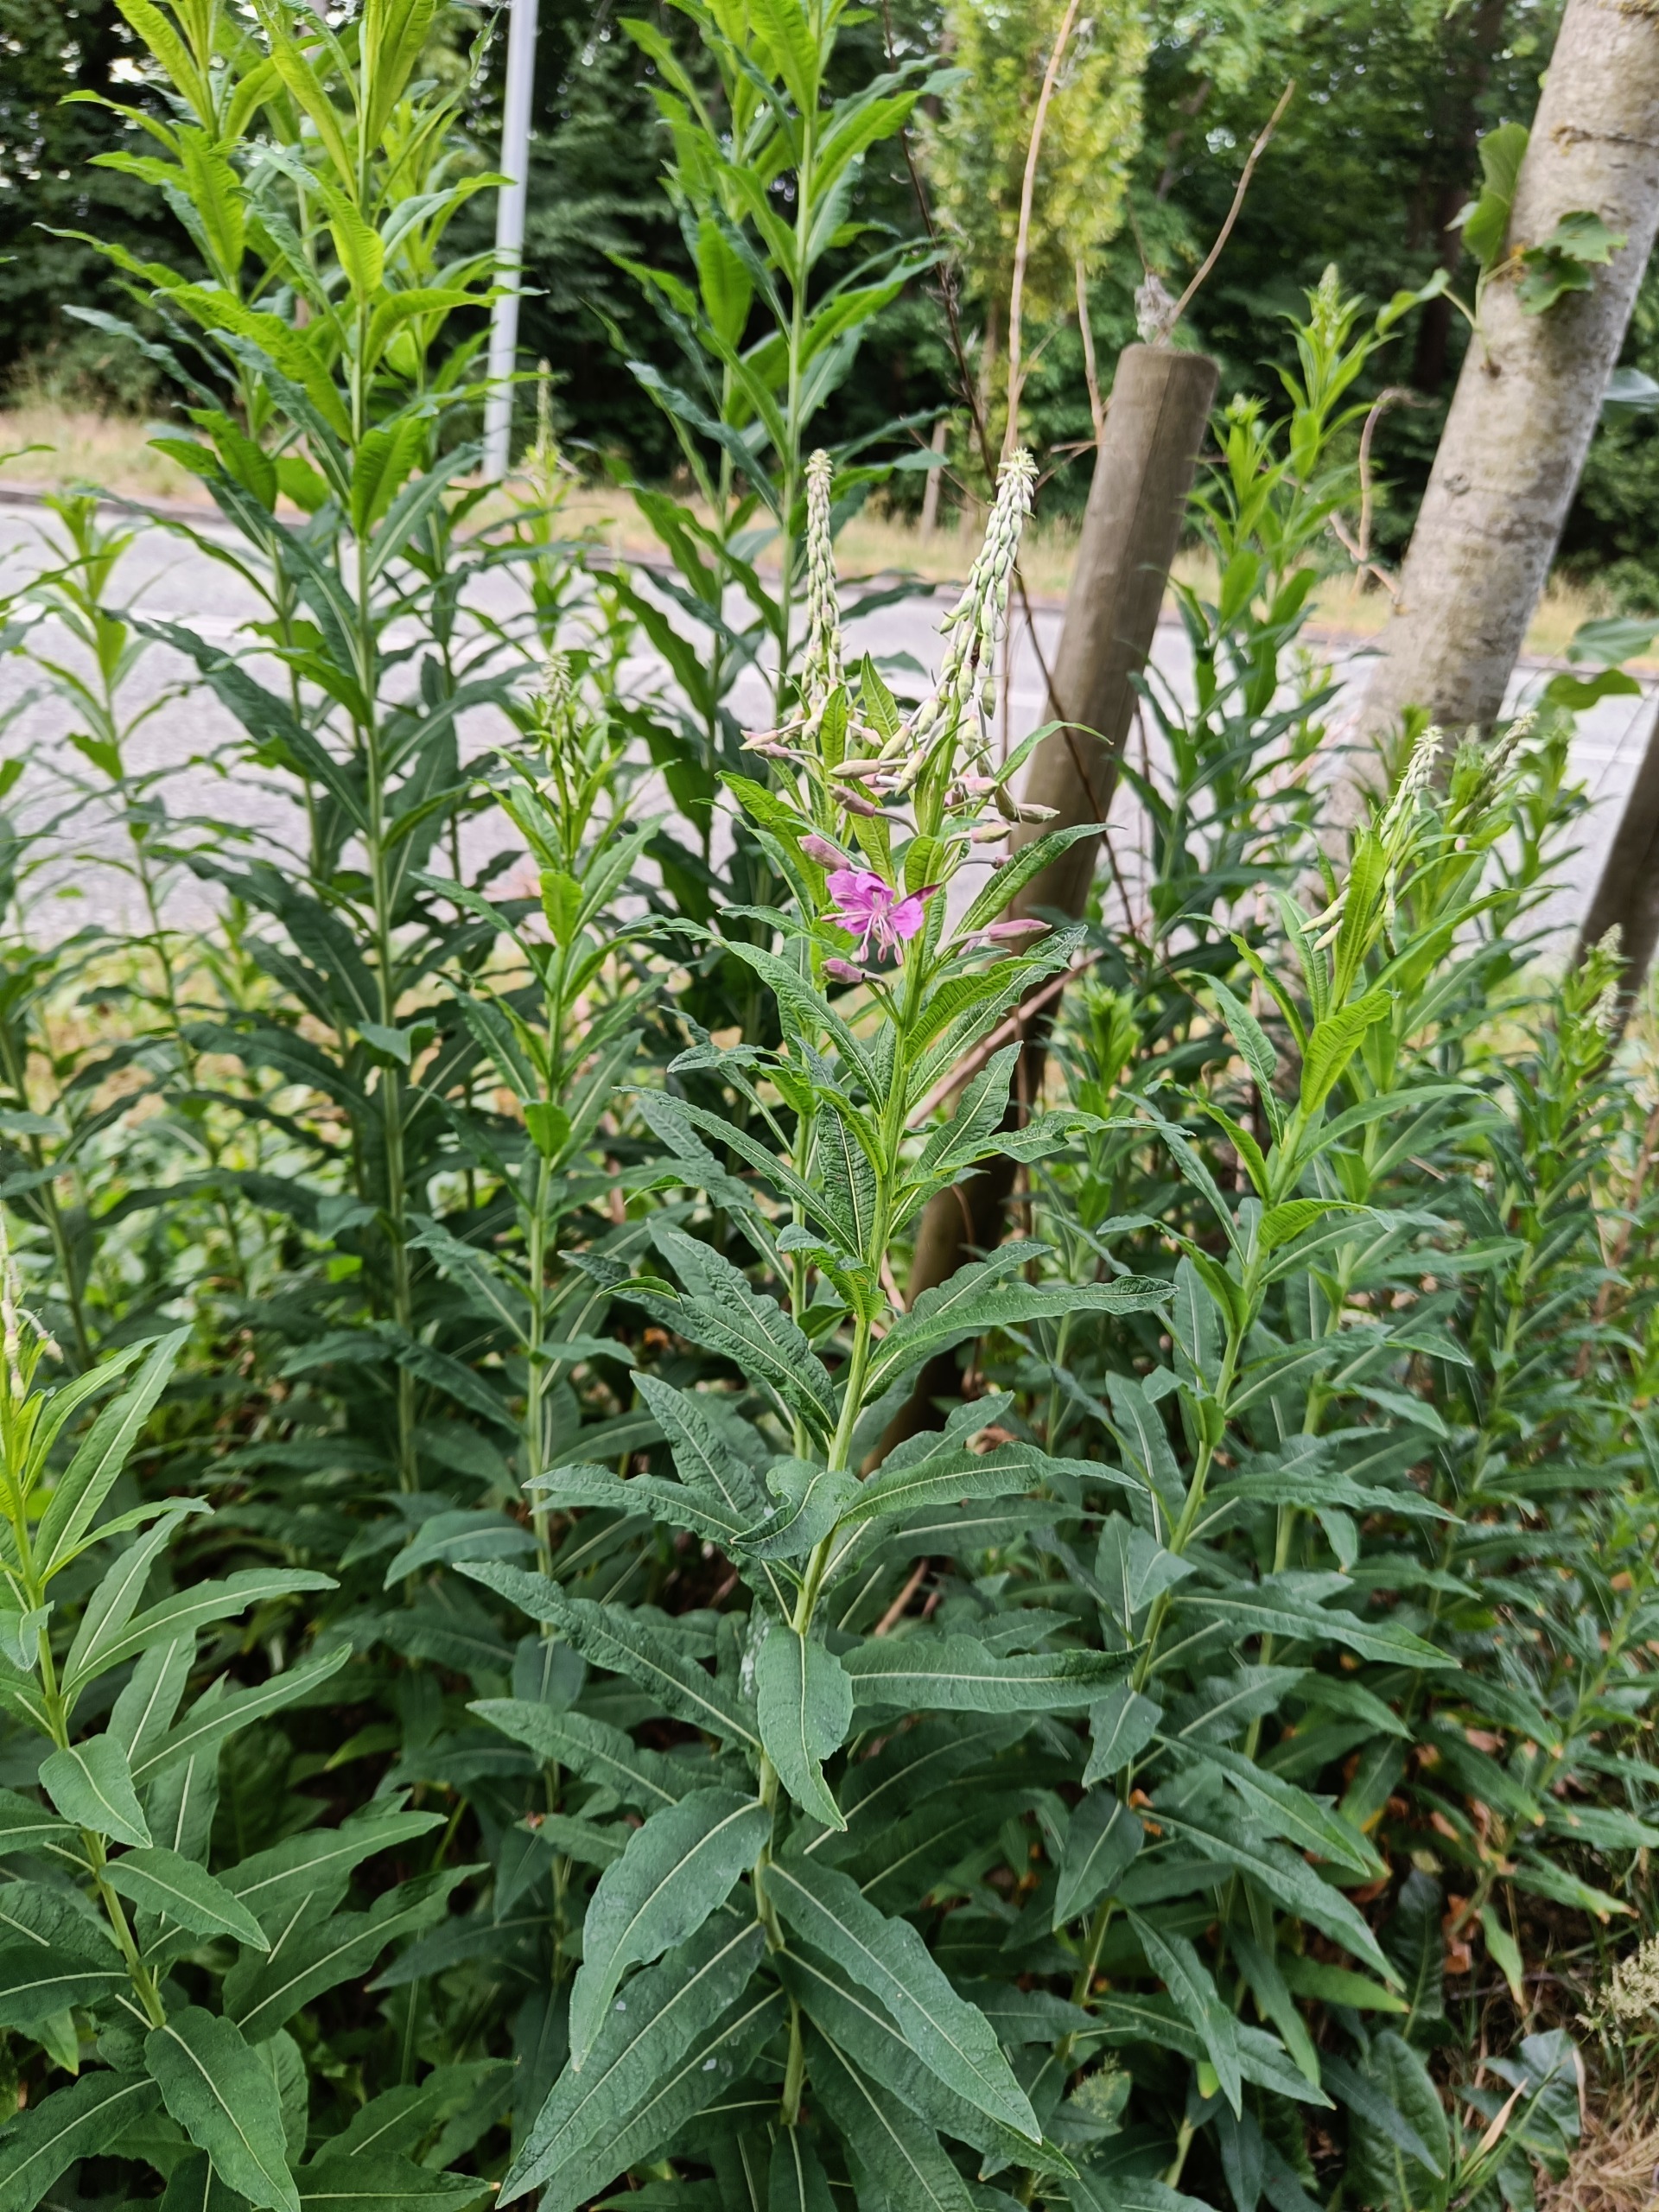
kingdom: Plantae
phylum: Tracheophyta
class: Magnoliopsida
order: Myrtales
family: Onagraceae
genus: Chamaenerion
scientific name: Chamaenerion angustifolium
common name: Gederams
